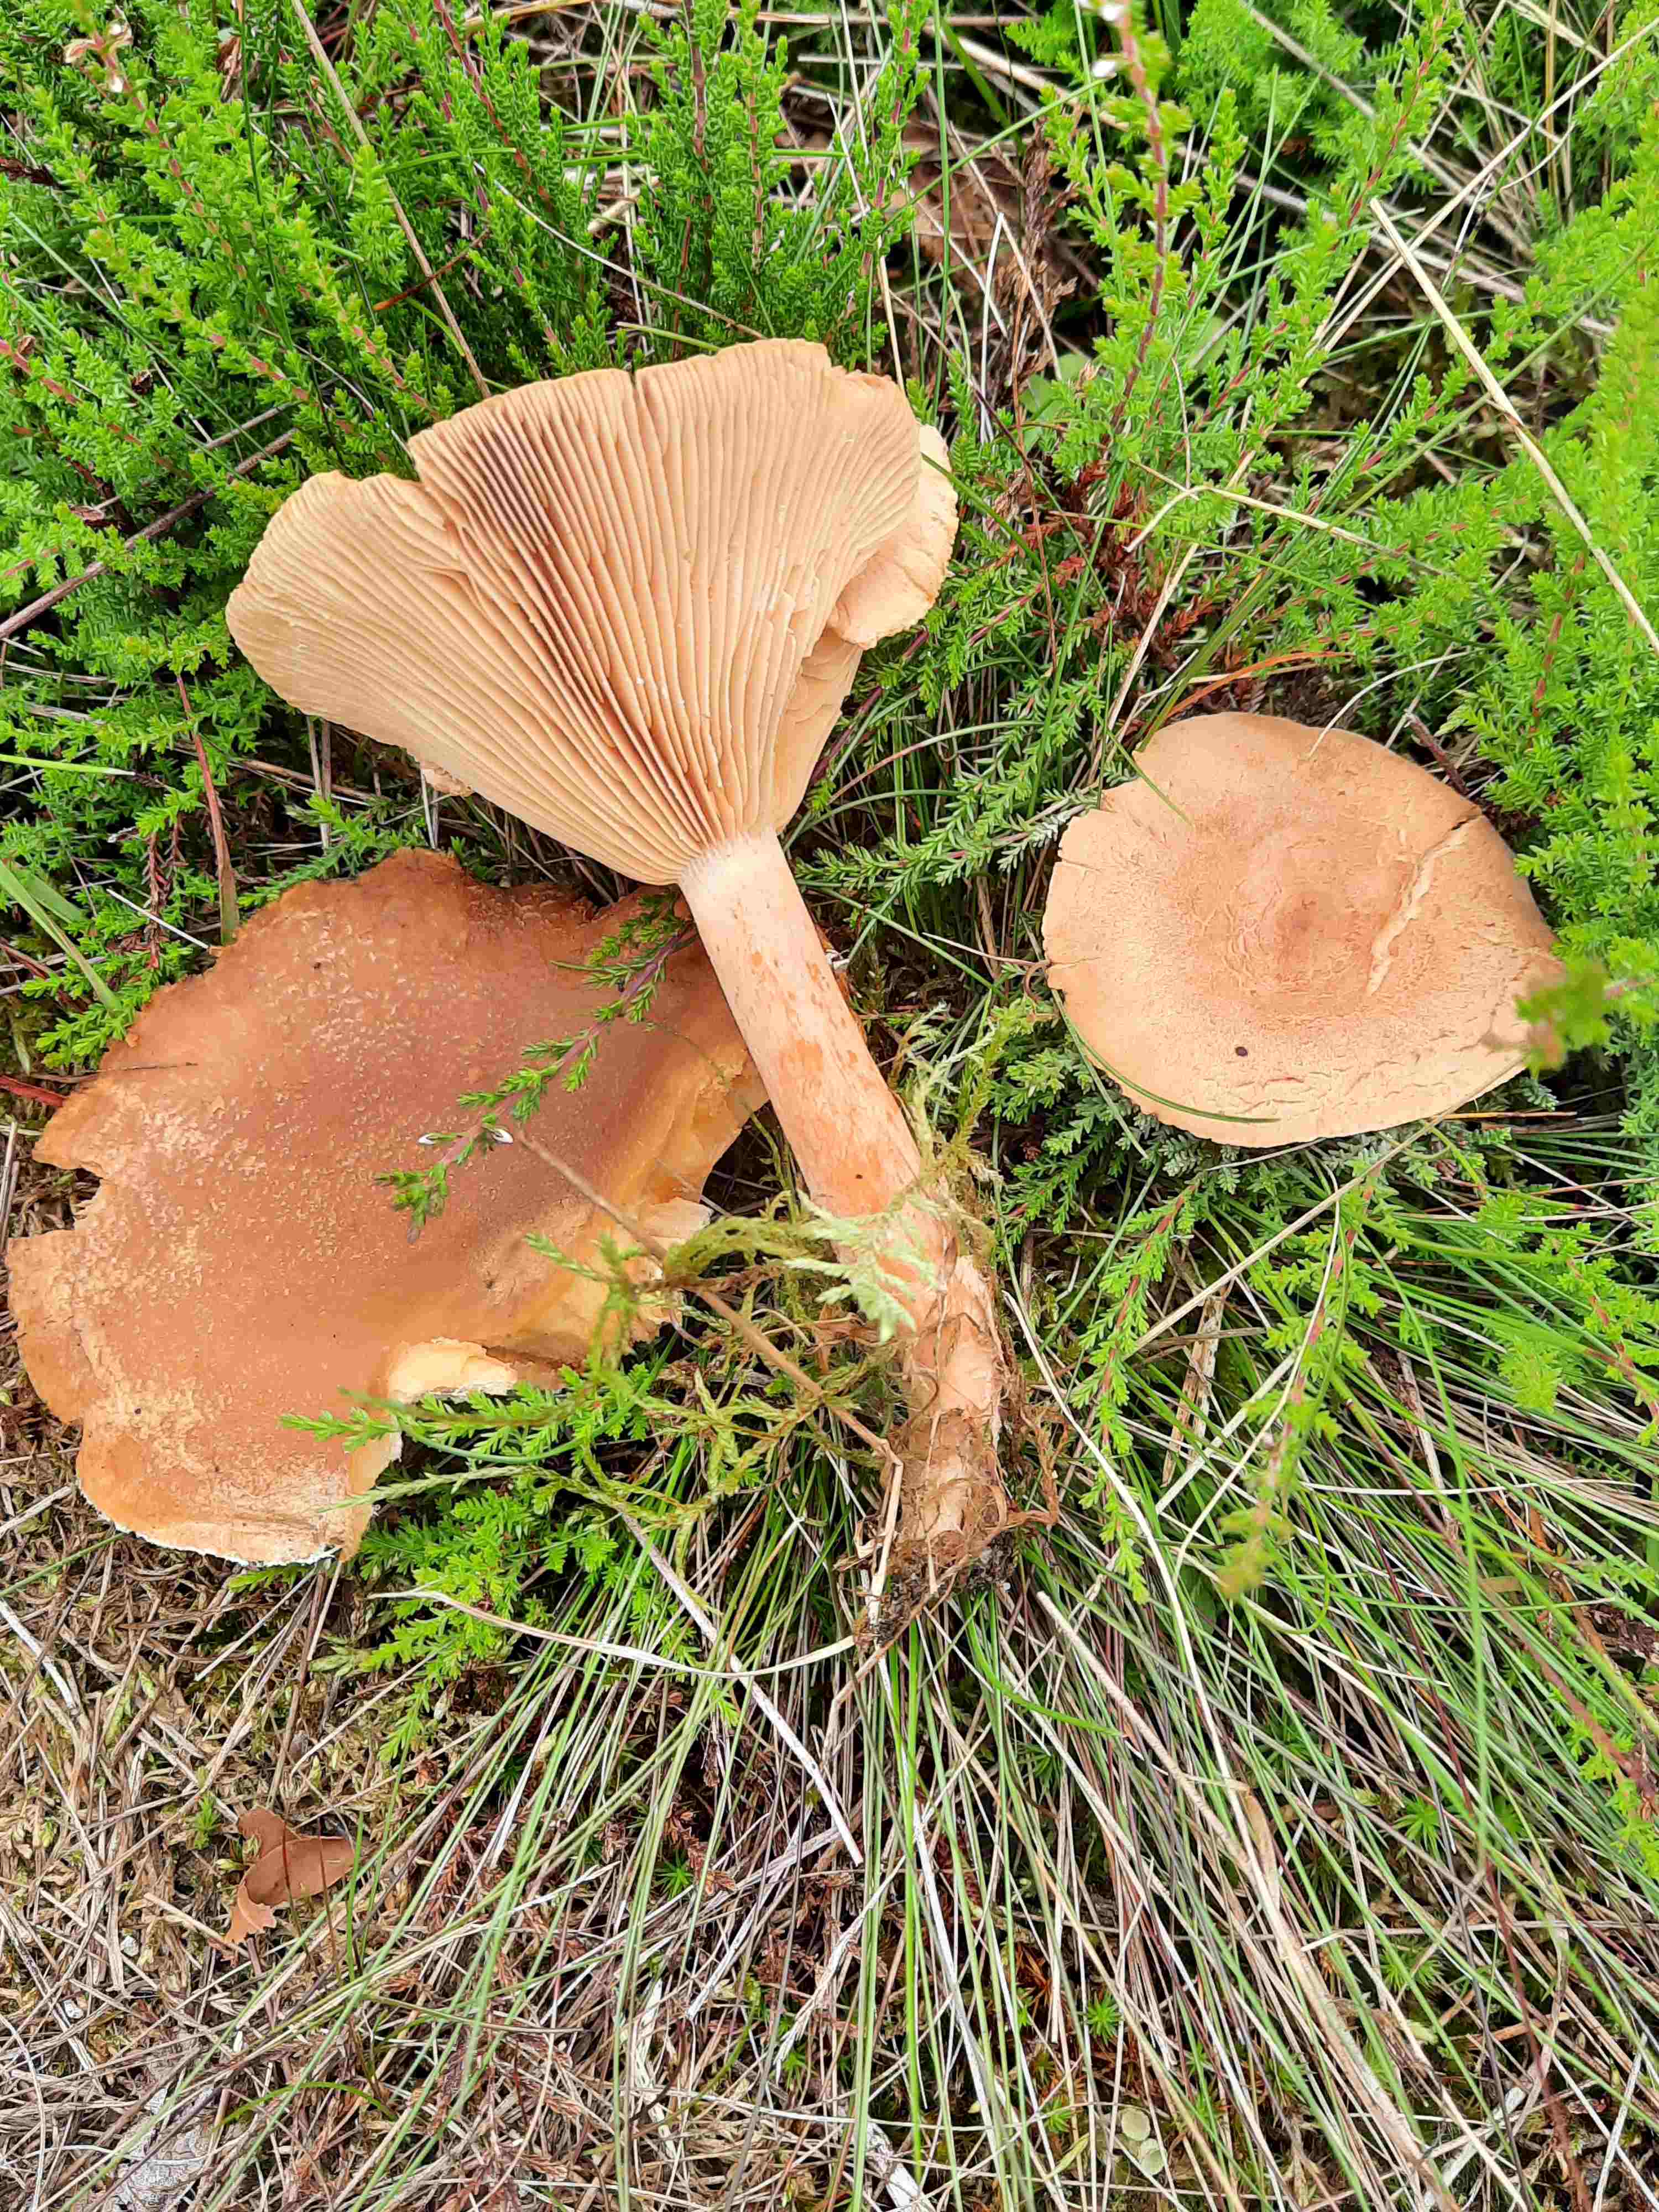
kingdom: Fungi
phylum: Basidiomycota
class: Agaricomycetes
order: Russulales
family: Russulaceae
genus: Lactarius
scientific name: Lactarius helvus
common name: mose-mælkehat
